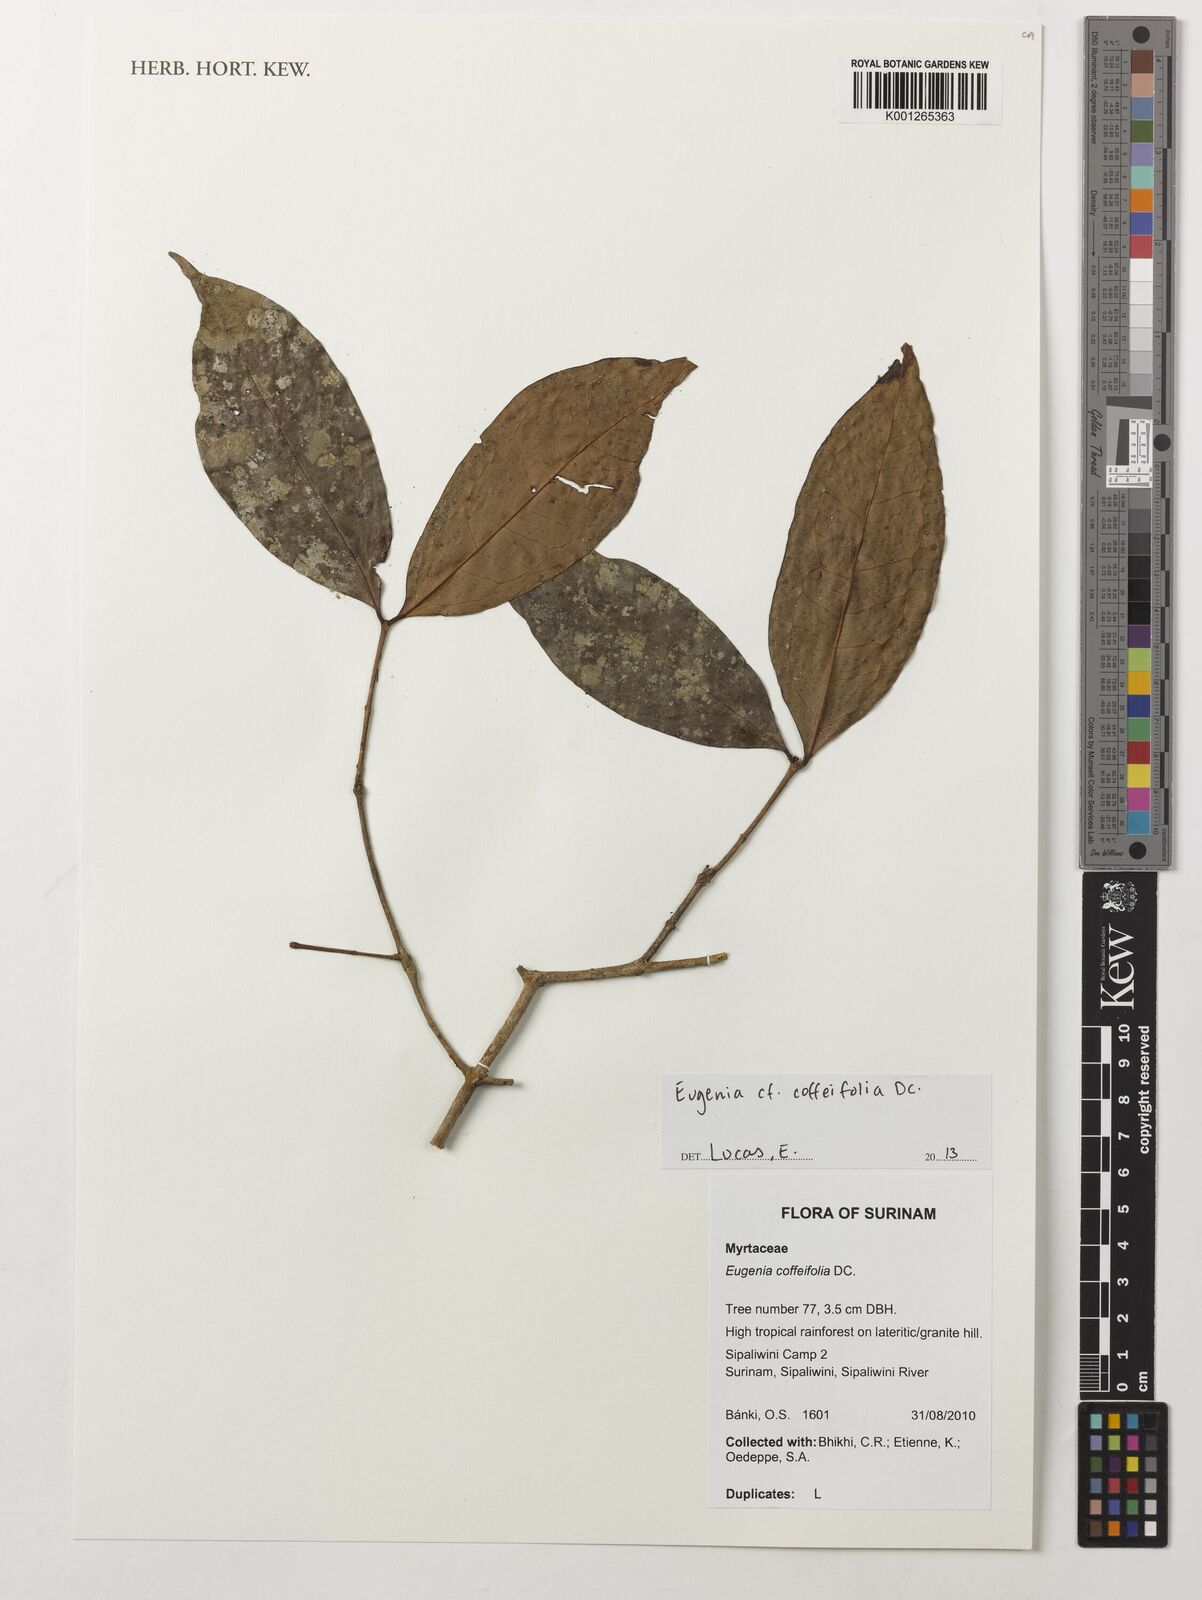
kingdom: Plantae
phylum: Tracheophyta
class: Magnoliopsida
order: Myrtales
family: Myrtaceae
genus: Eugenia
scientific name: Eugenia coffeifolia
